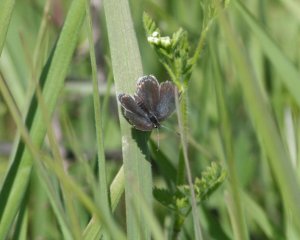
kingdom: Animalia
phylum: Arthropoda
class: Insecta
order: Lepidoptera
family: Lycaenidae
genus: Elkalyce
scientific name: Elkalyce comyntas
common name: Eastern Tailed-Blue
